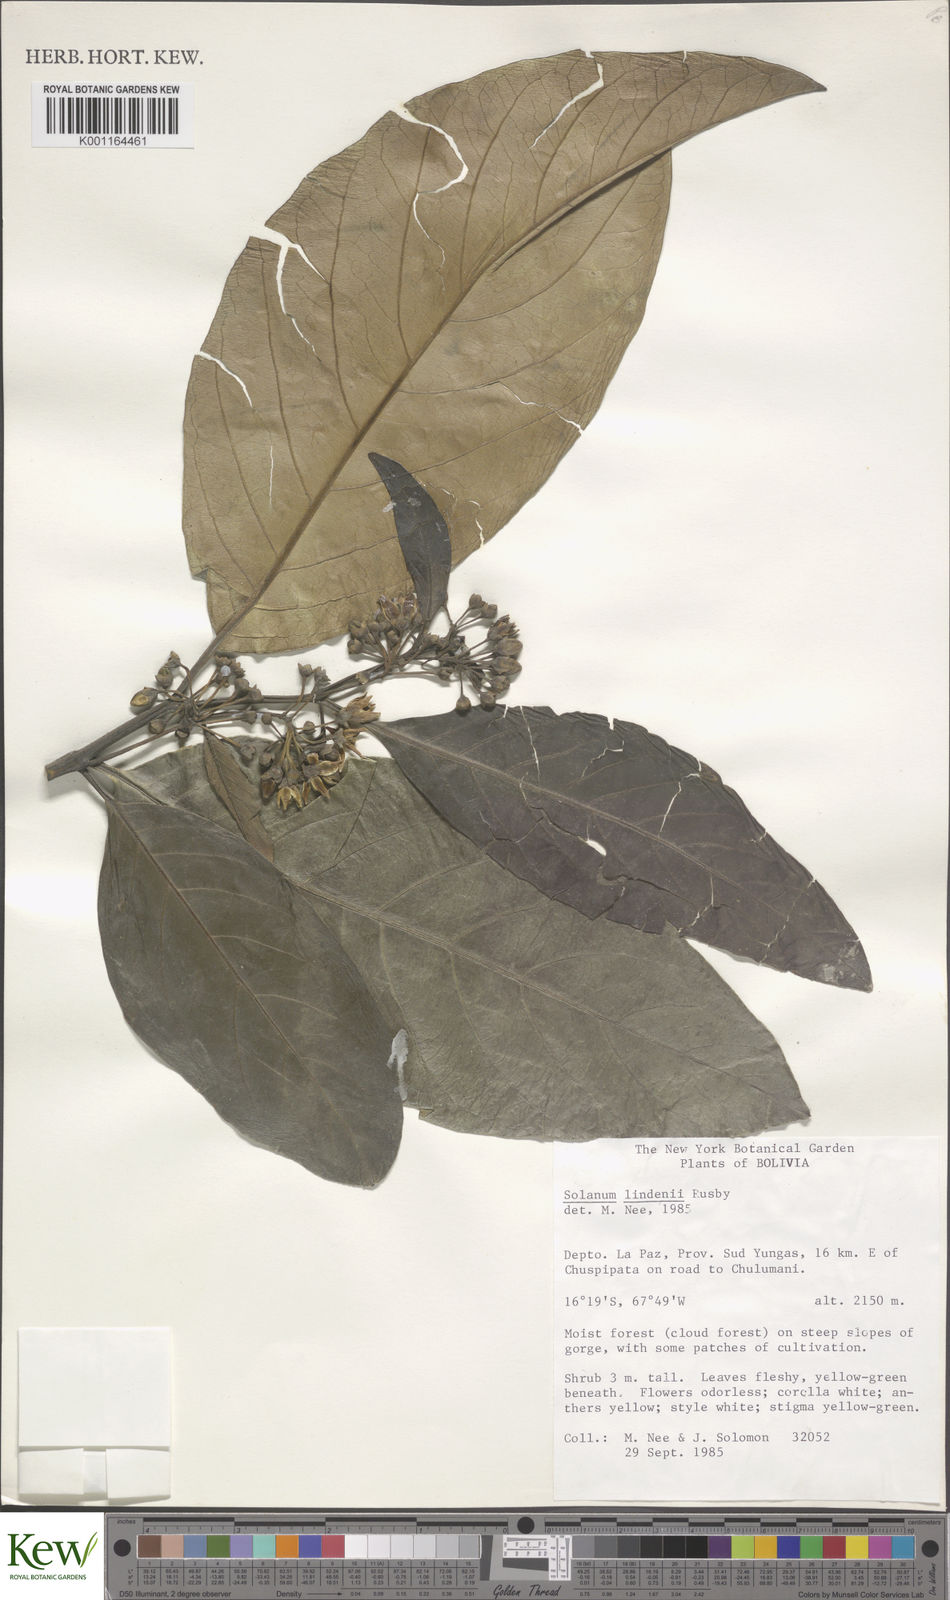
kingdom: Plantae
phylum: Tracheophyta
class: Magnoliopsida
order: Solanales
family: Solanaceae
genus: Solanum
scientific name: Solanum lindenii
